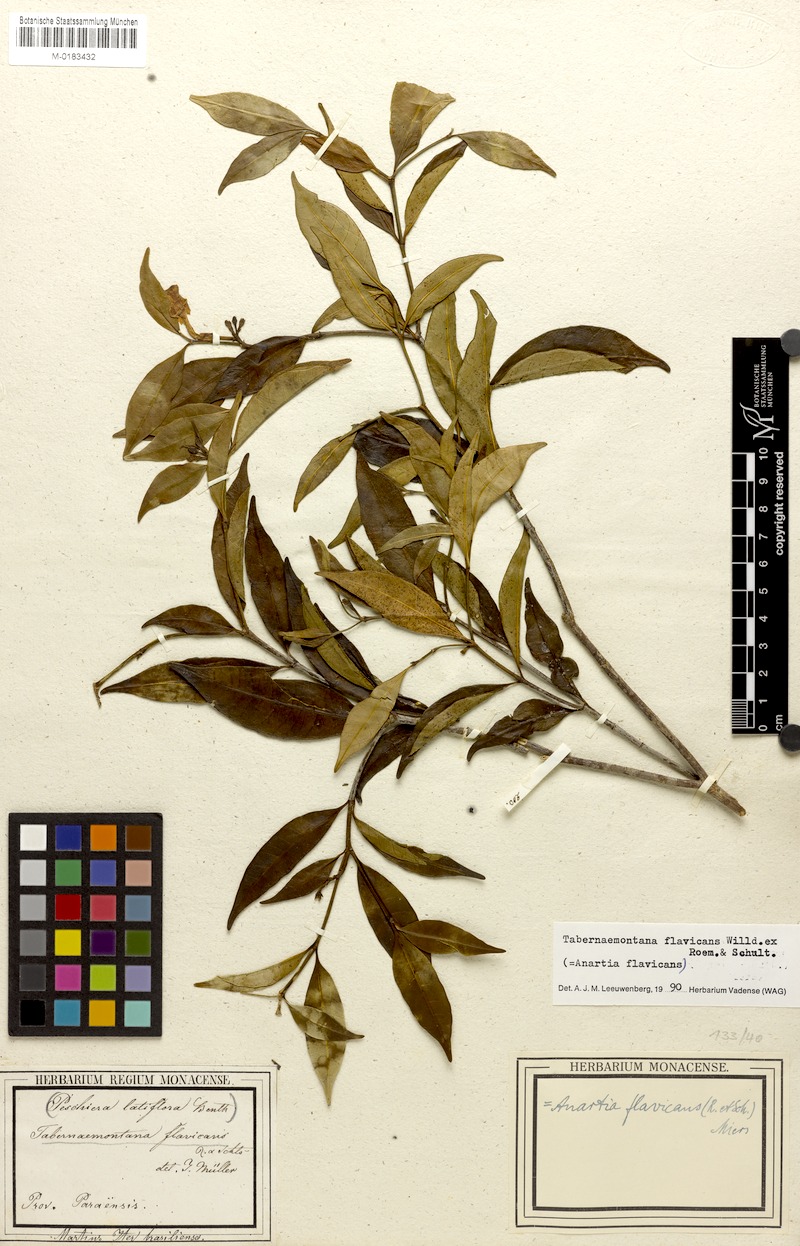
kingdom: Plantae
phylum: Tracheophyta
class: Magnoliopsida
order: Gentianales
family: Apocynaceae
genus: Tabernaemontana
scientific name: Tabernaemontana flavicans
